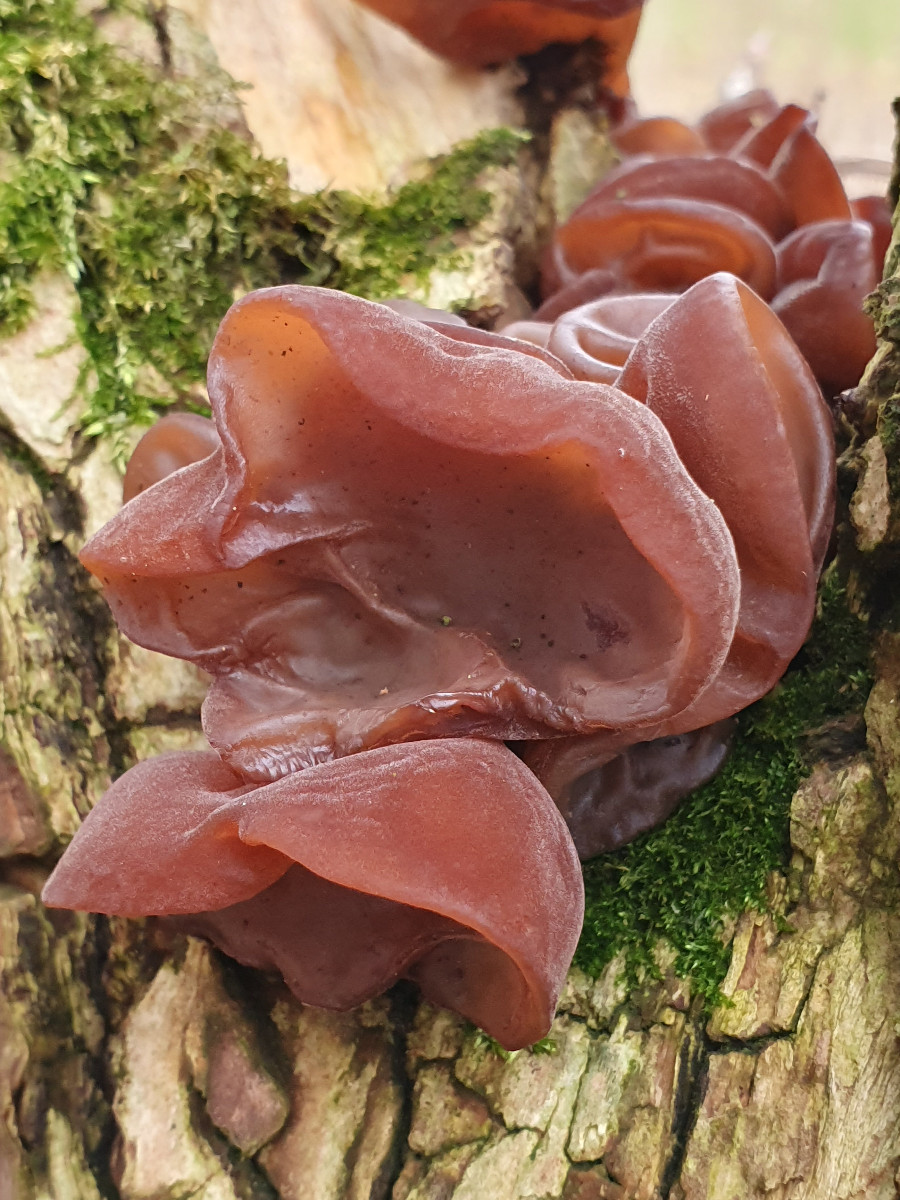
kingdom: Fungi
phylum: Basidiomycota
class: Agaricomycetes
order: Auriculariales
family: Auriculariaceae
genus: Auricularia
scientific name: Auricularia auricula-judae
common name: almindelig judasøre
